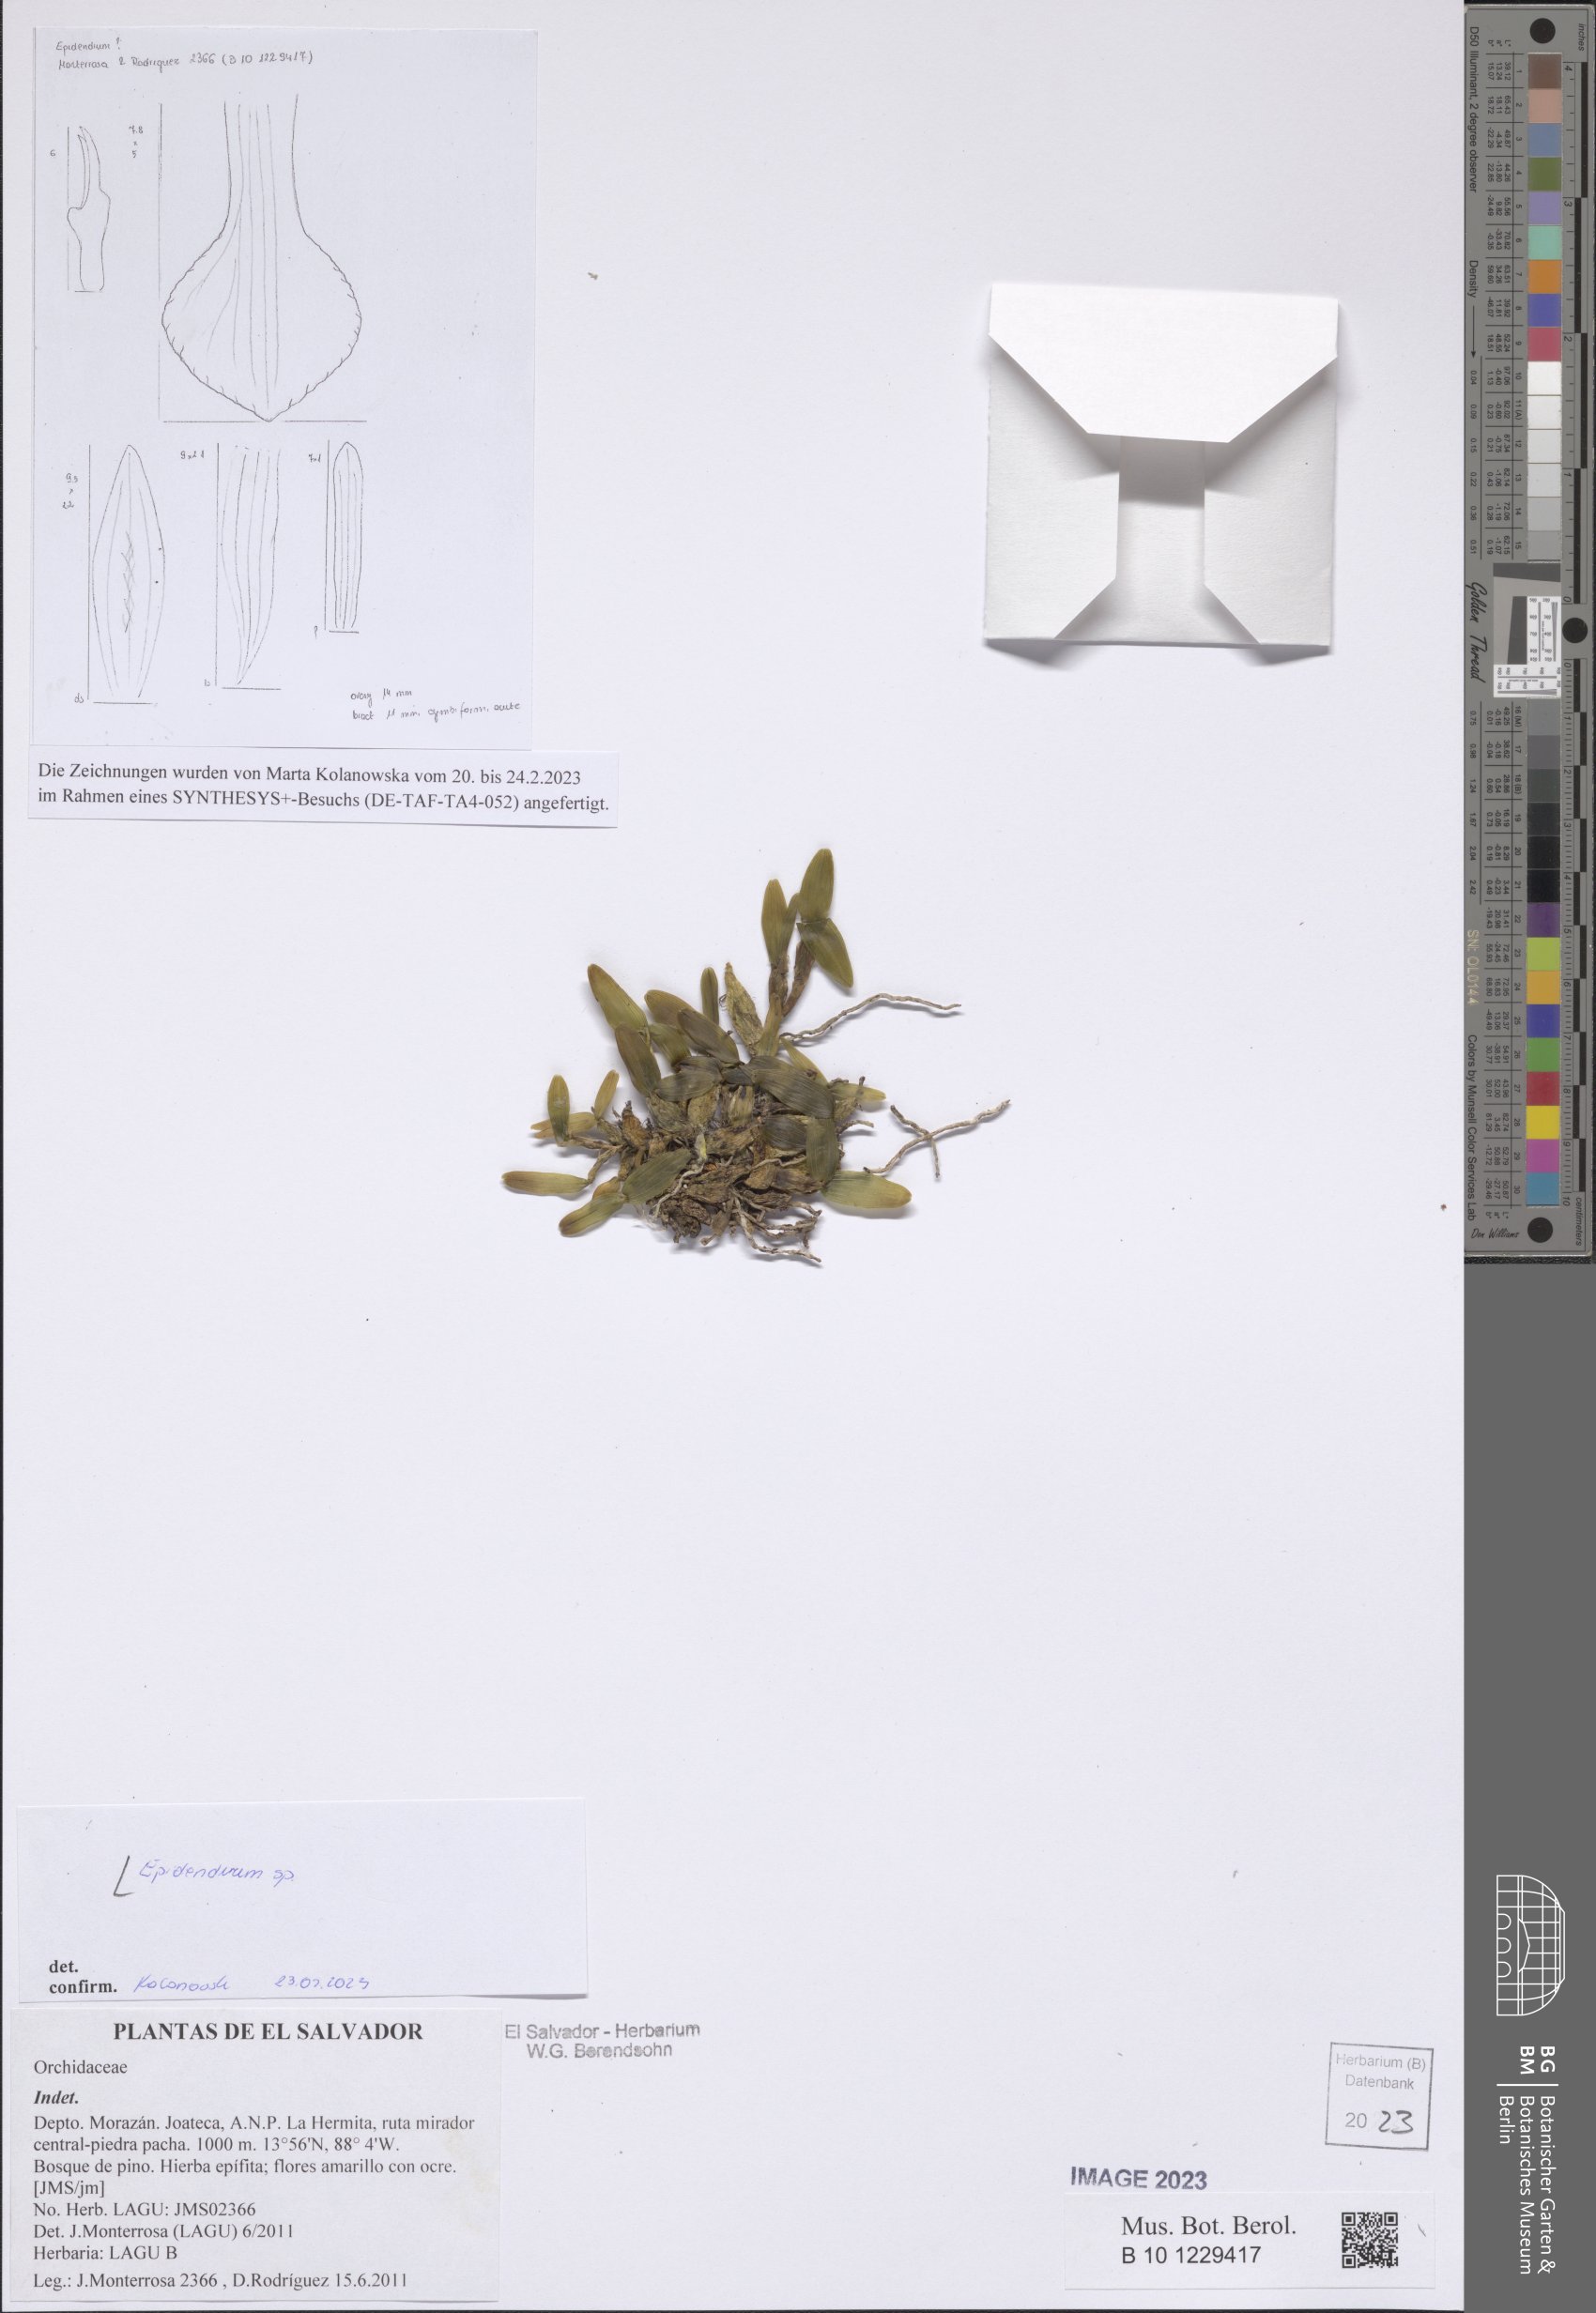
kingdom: Plantae
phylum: Tracheophyta
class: Liliopsida
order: Asparagales
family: Orchidaceae
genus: Epidendrum
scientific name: Epidendrum
